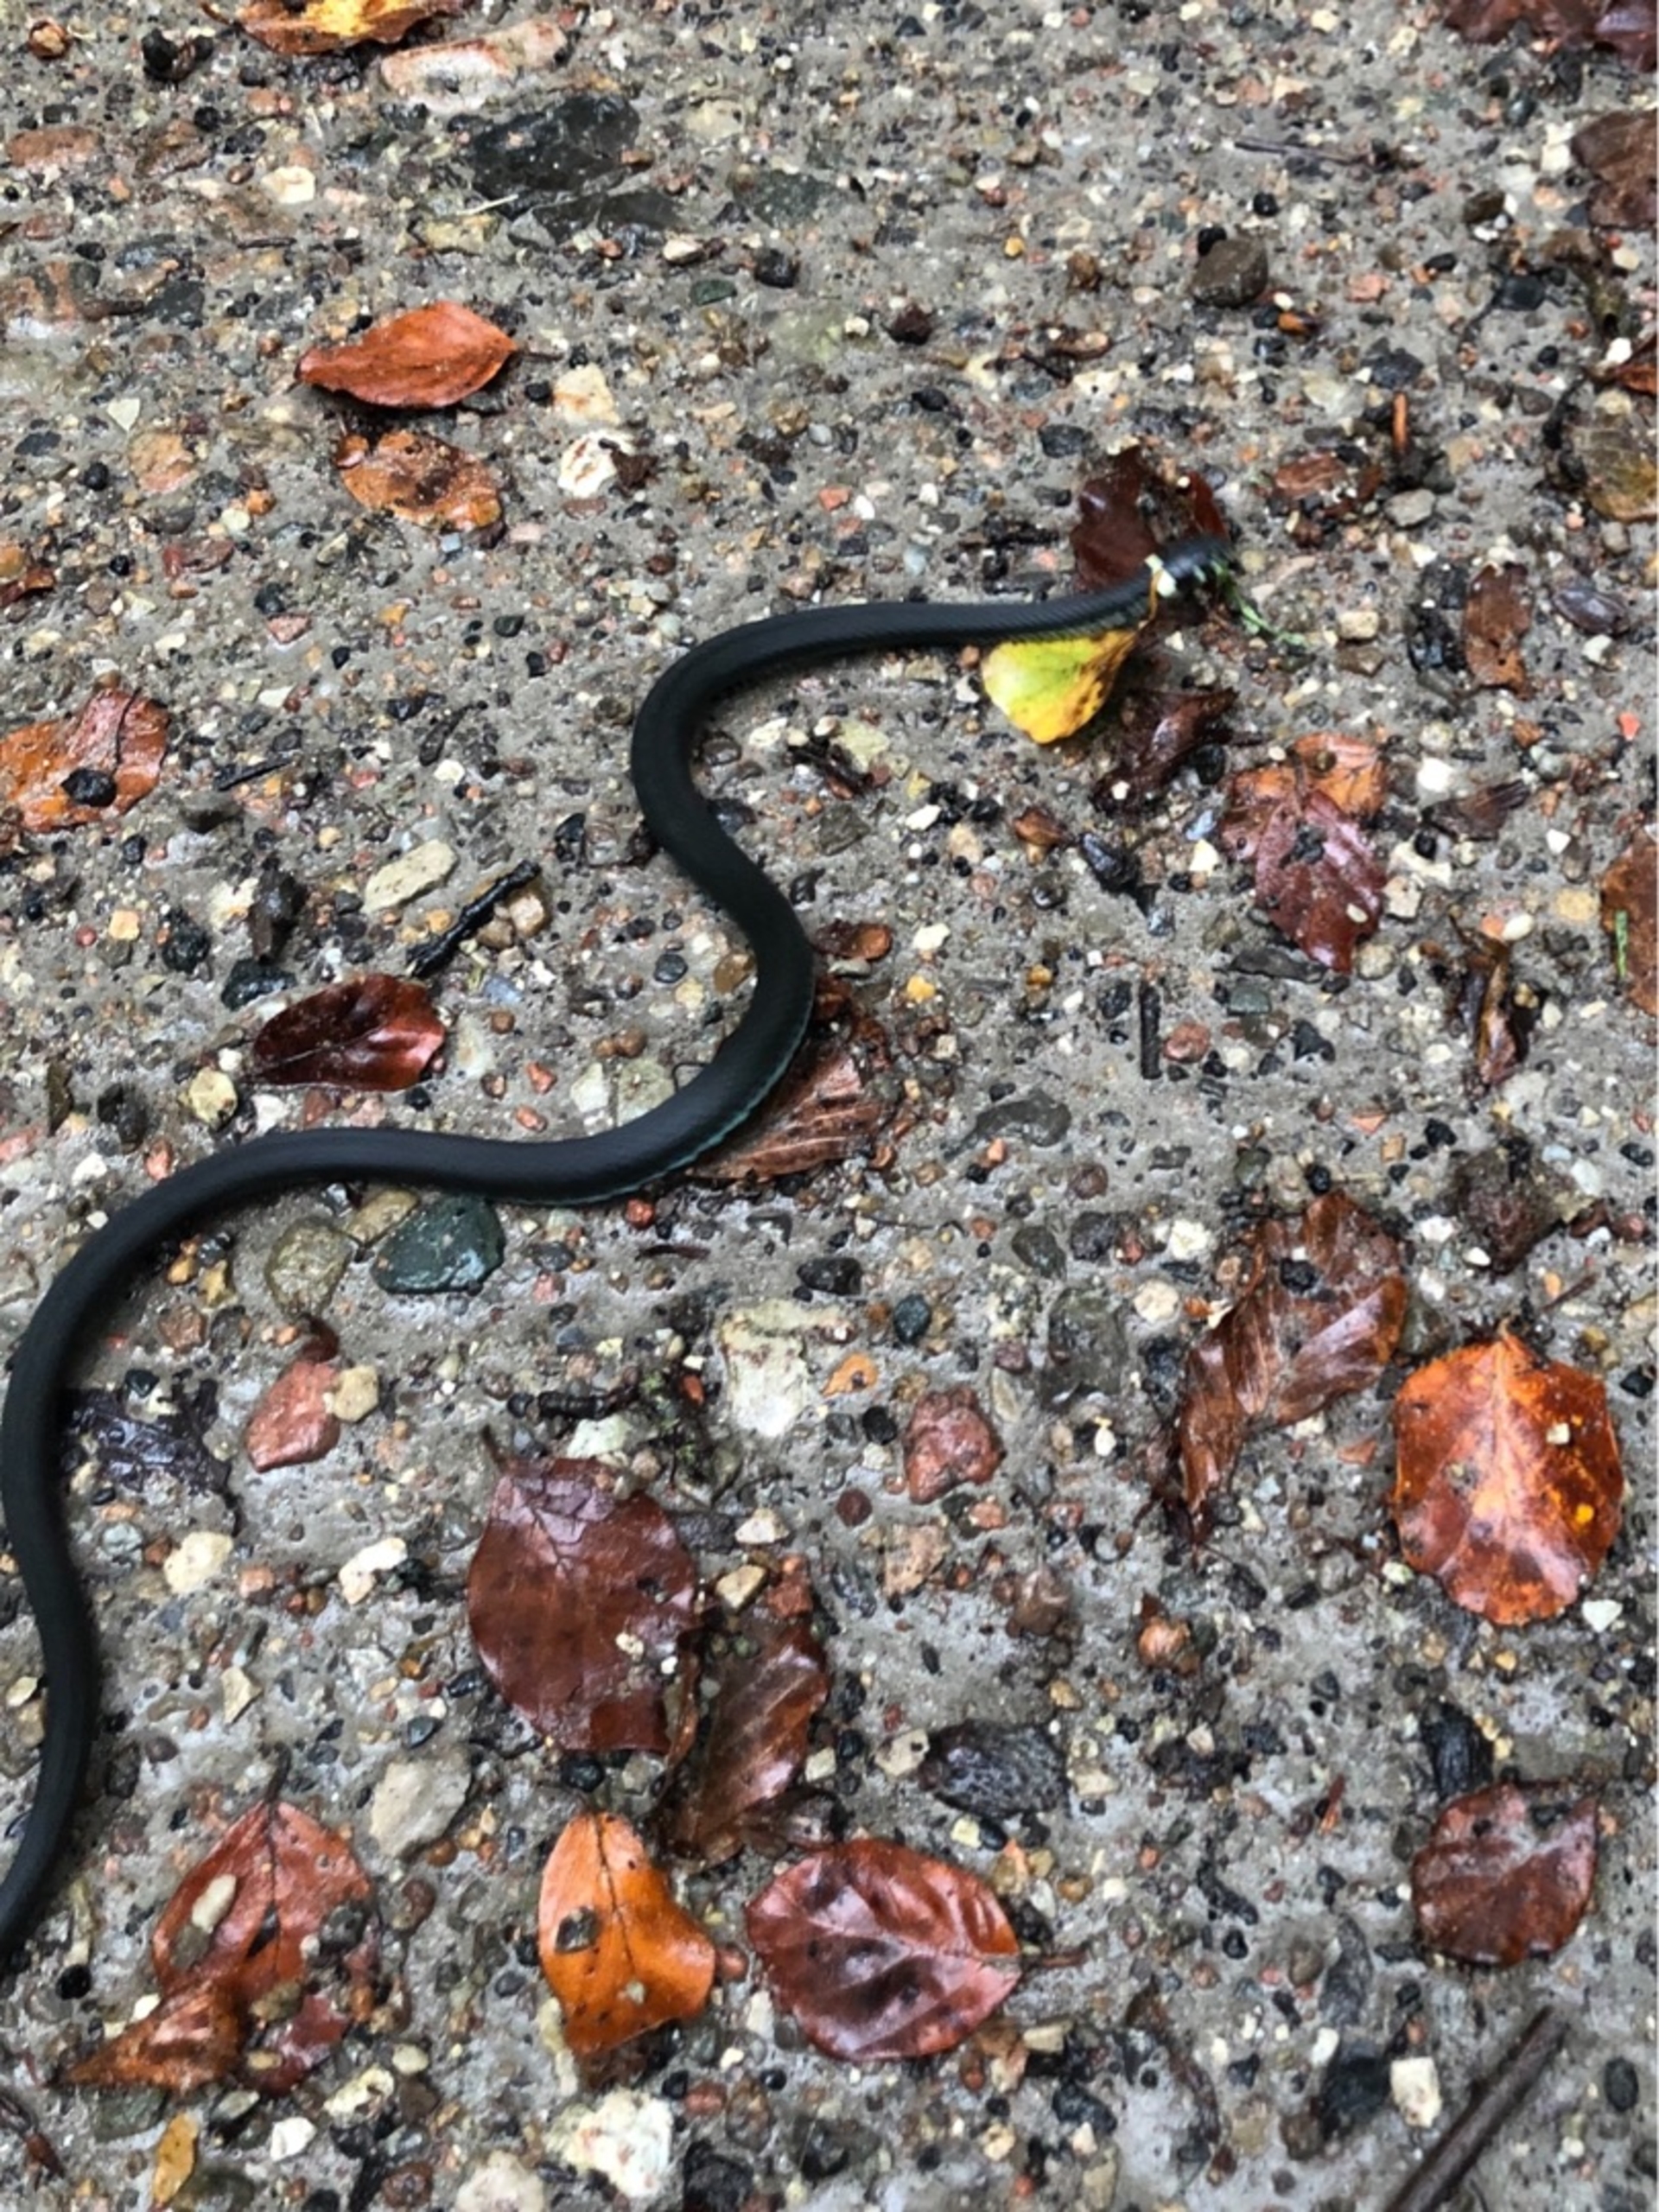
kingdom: Animalia
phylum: Chordata
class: Squamata
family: Colubridae
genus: Natrix
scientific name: Natrix natrix
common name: Snog
